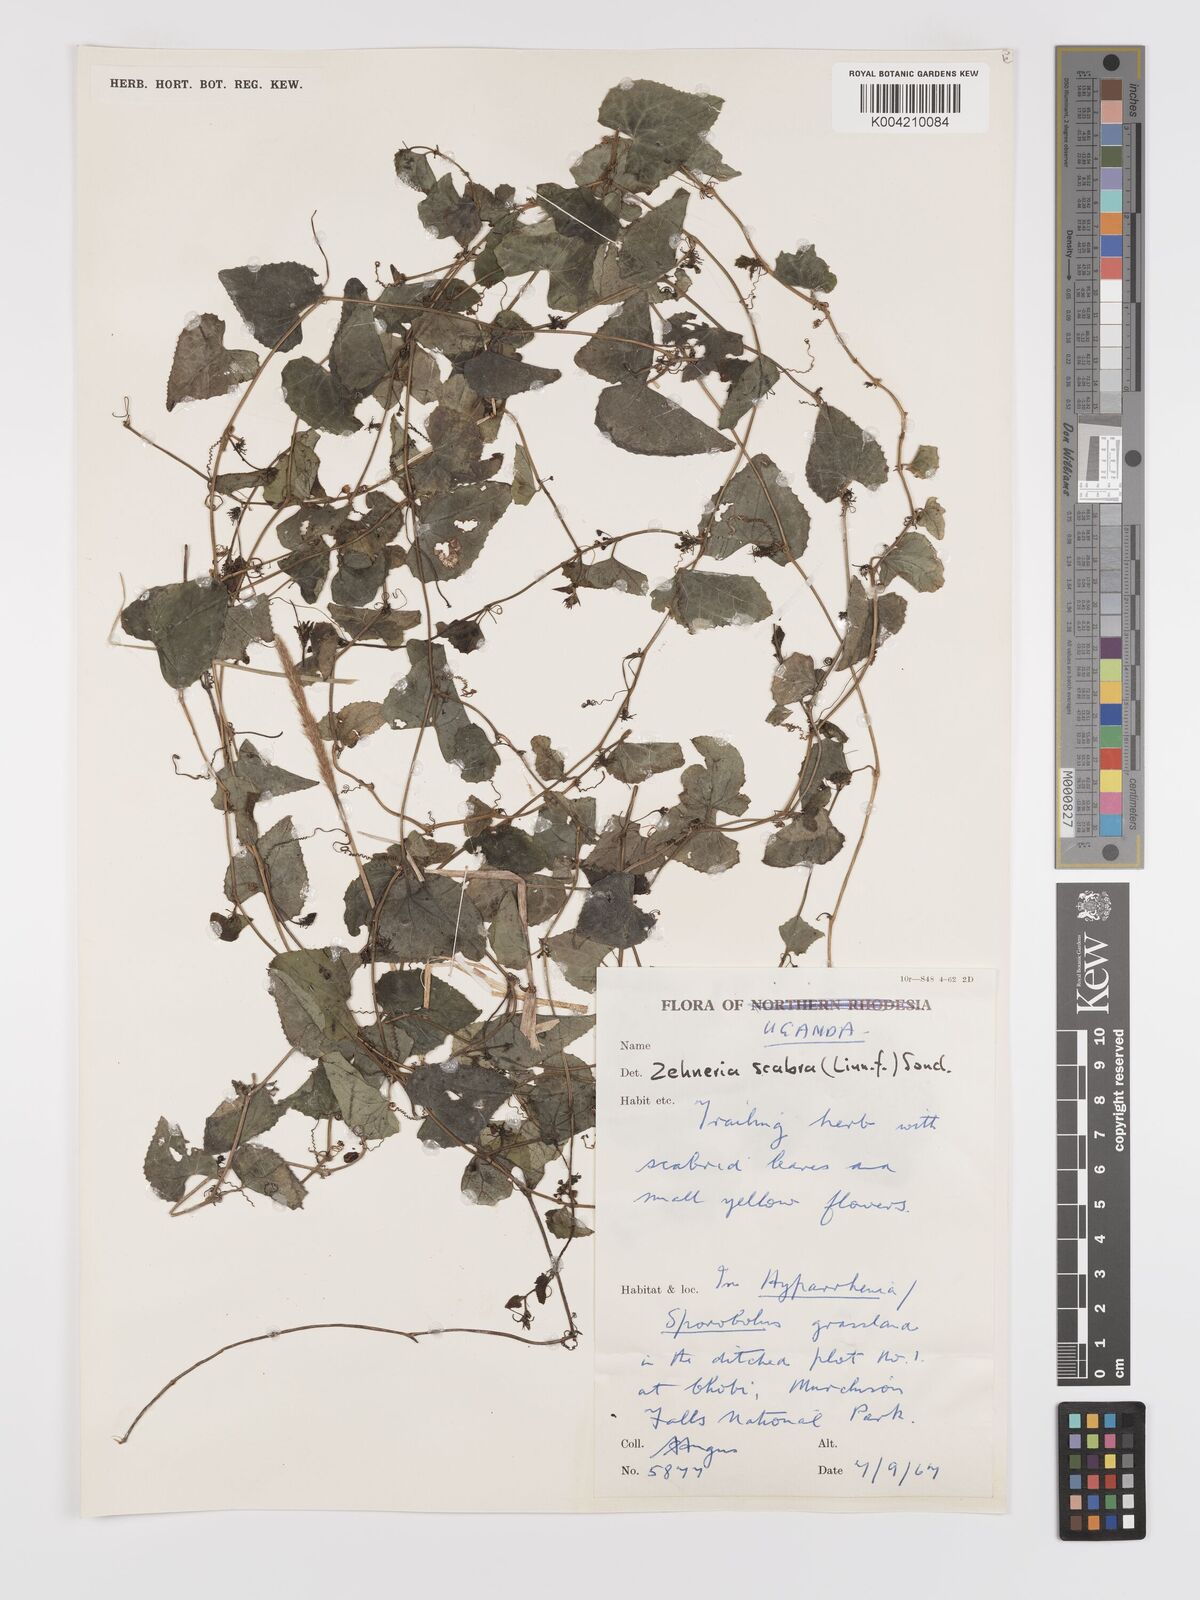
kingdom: Plantae
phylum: Tracheophyta
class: Magnoliopsida
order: Cucurbitales
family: Cucurbitaceae
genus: Zehneria
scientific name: Zehneria scabra
